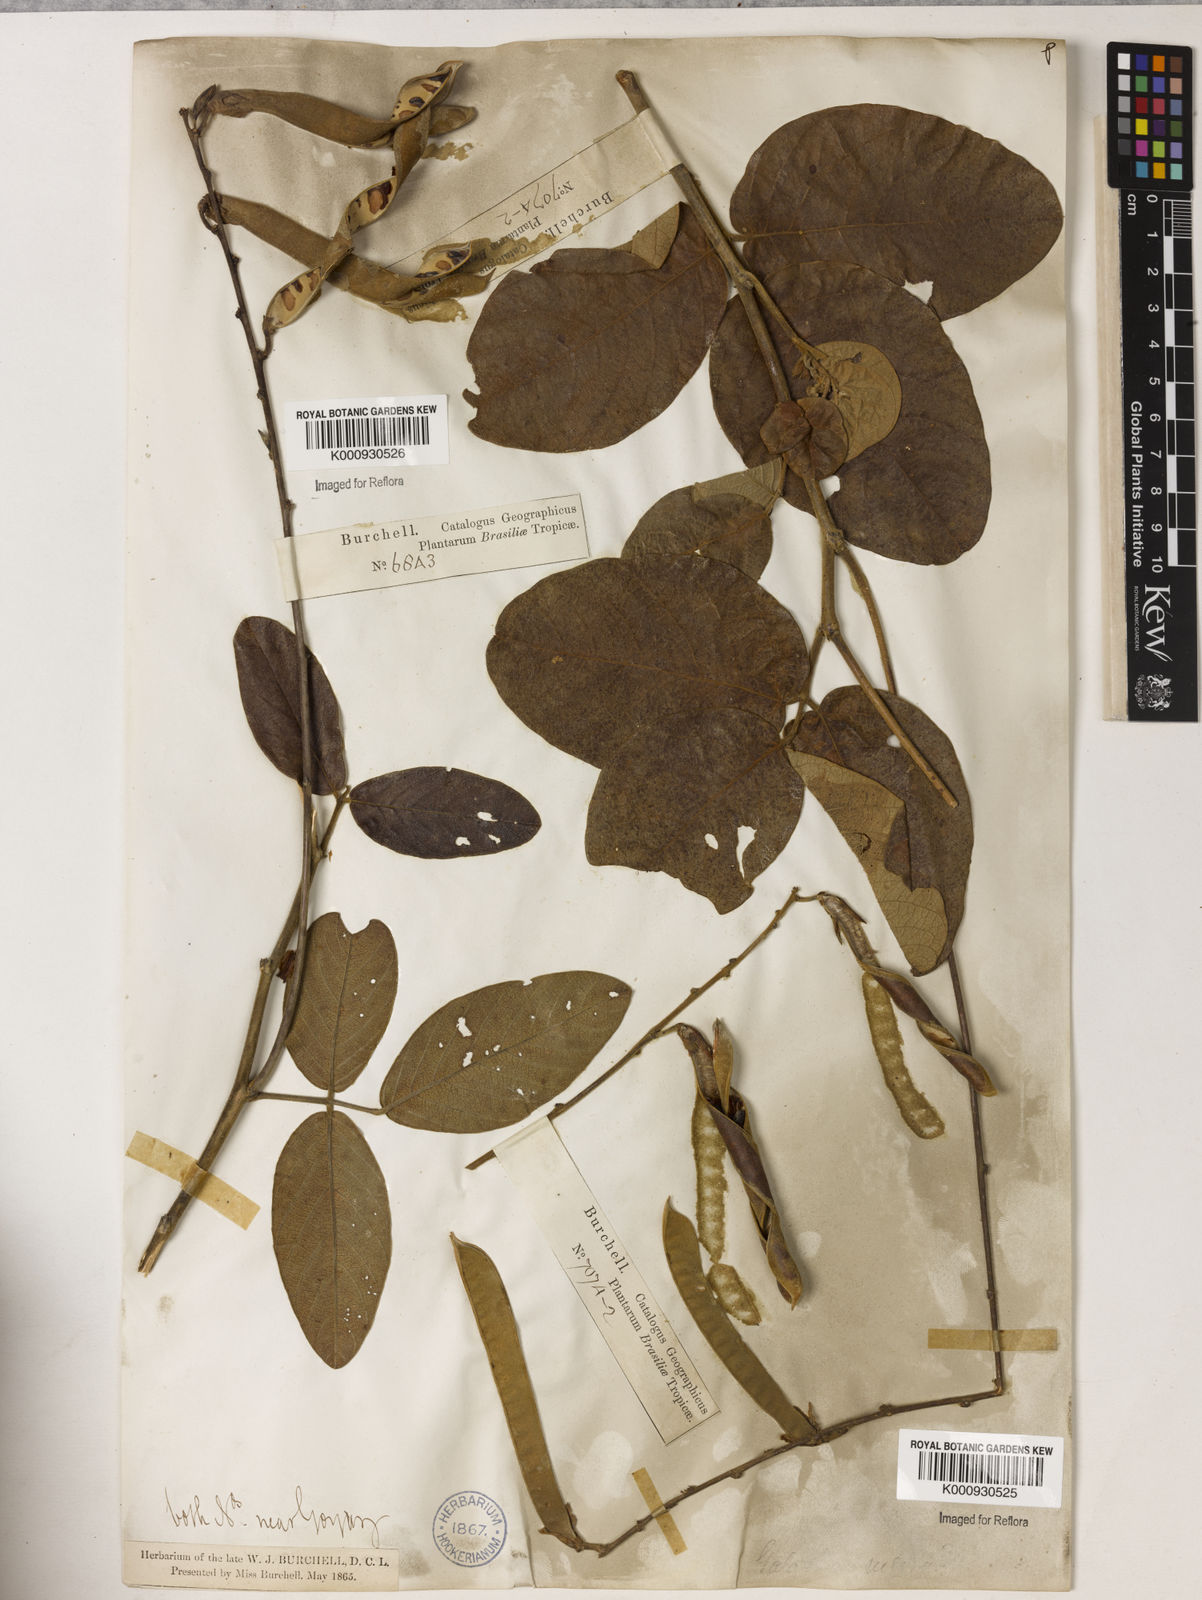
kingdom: Plantae
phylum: Tracheophyta
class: Magnoliopsida
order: Fabales
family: Fabaceae
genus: Galactia
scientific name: Galactia
